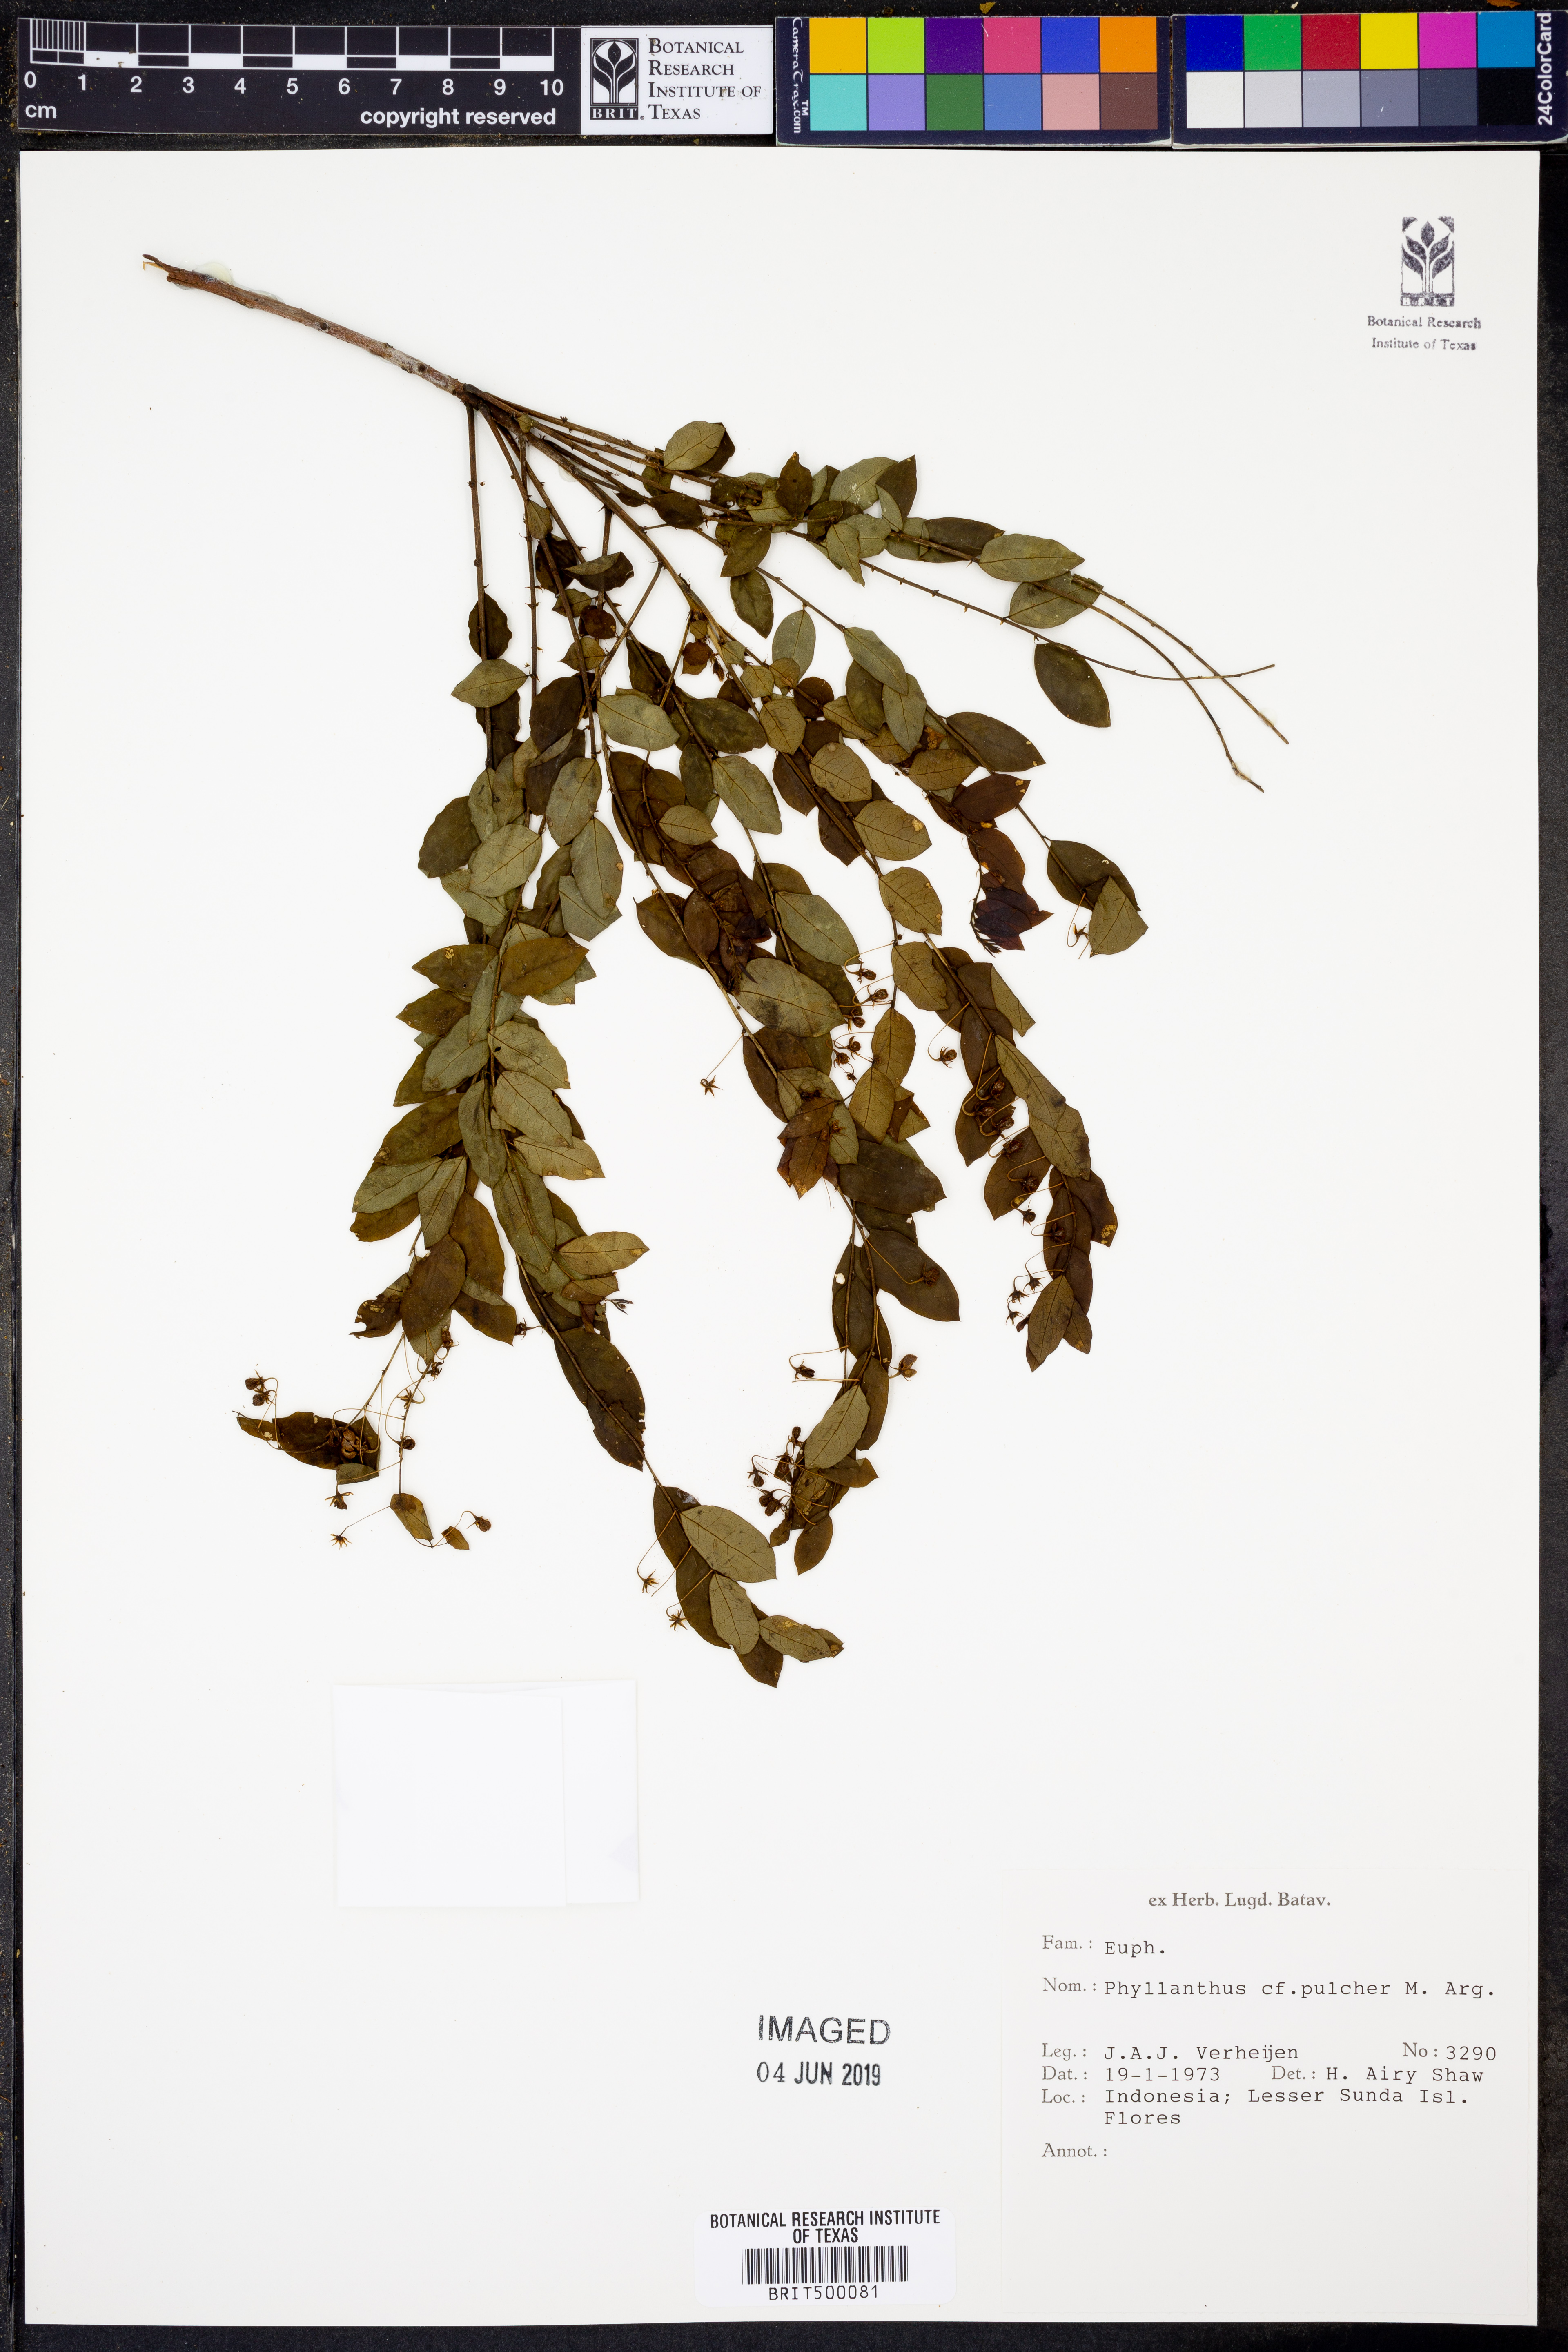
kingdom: Plantae
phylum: Tracheophyta
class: Magnoliopsida
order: Malpighiales
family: Phyllanthaceae
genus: Phyllanthus
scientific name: Phyllanthus pulcher
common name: Dragon-of-the-world
